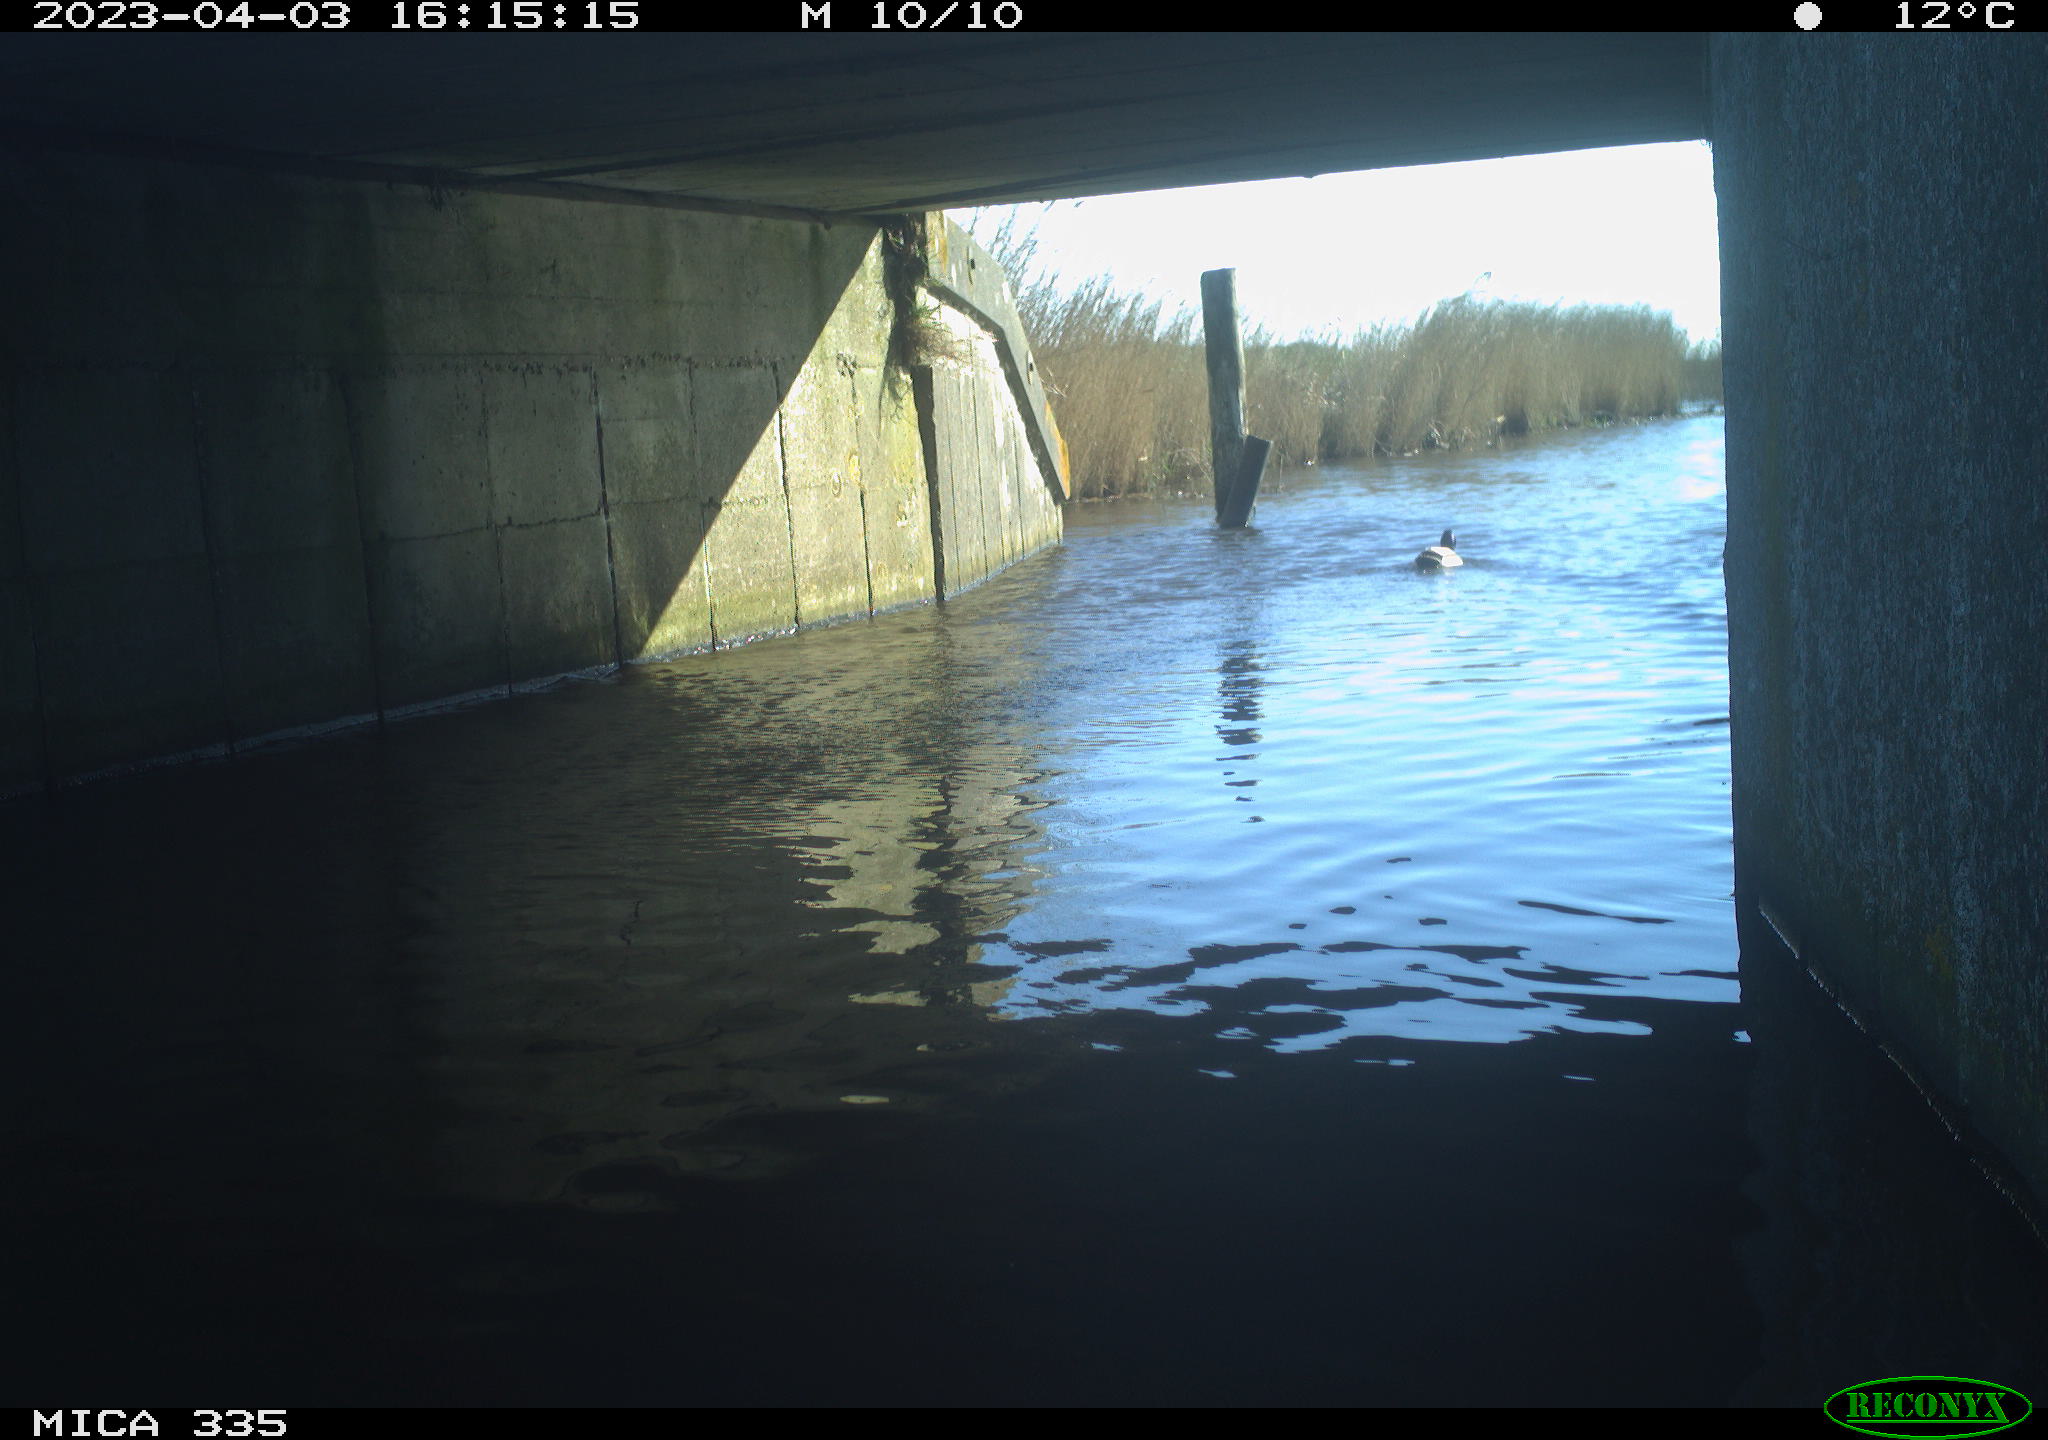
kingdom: Animalia
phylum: Chordata
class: Aves
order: Anseriformes
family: Anatidae
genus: Anas
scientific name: Anas
